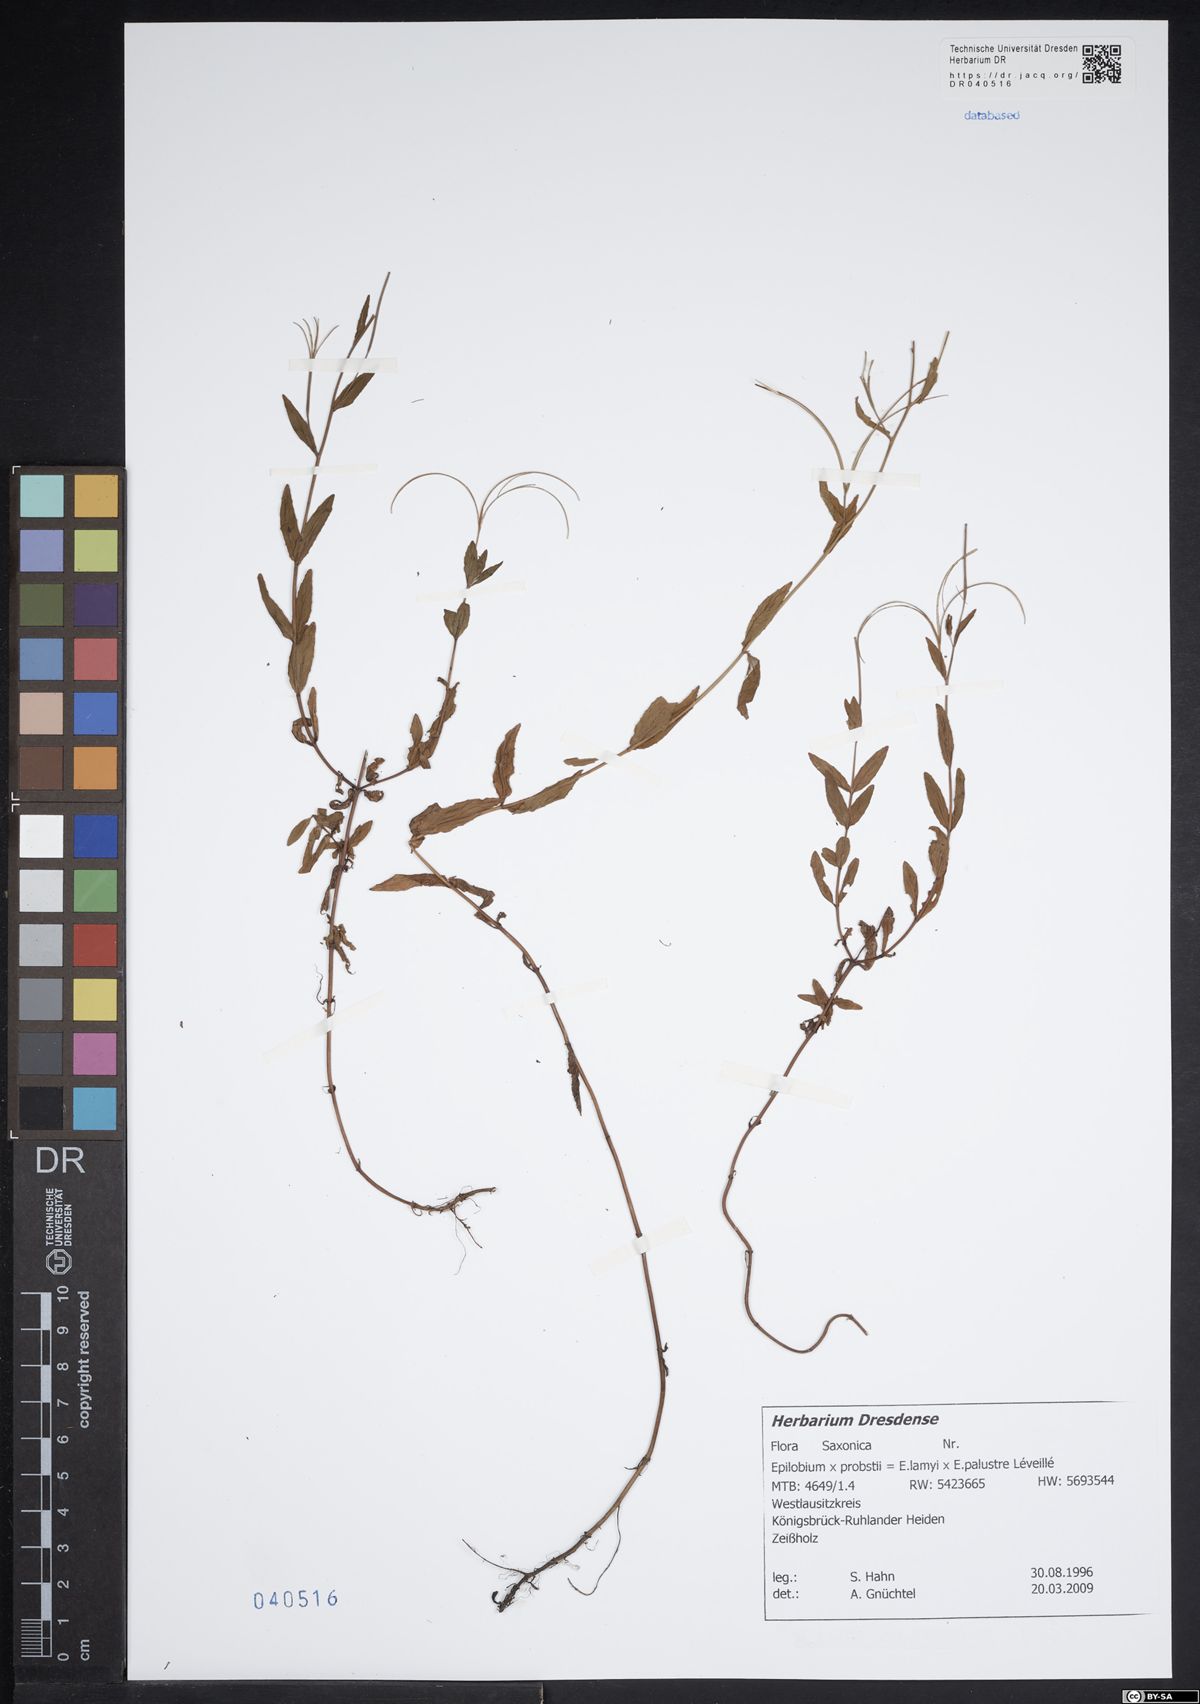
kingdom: Plantae
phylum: Tracheophyta
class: Magnoliopsida
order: Myrtales
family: Onagraceae
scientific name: Onagraceae
